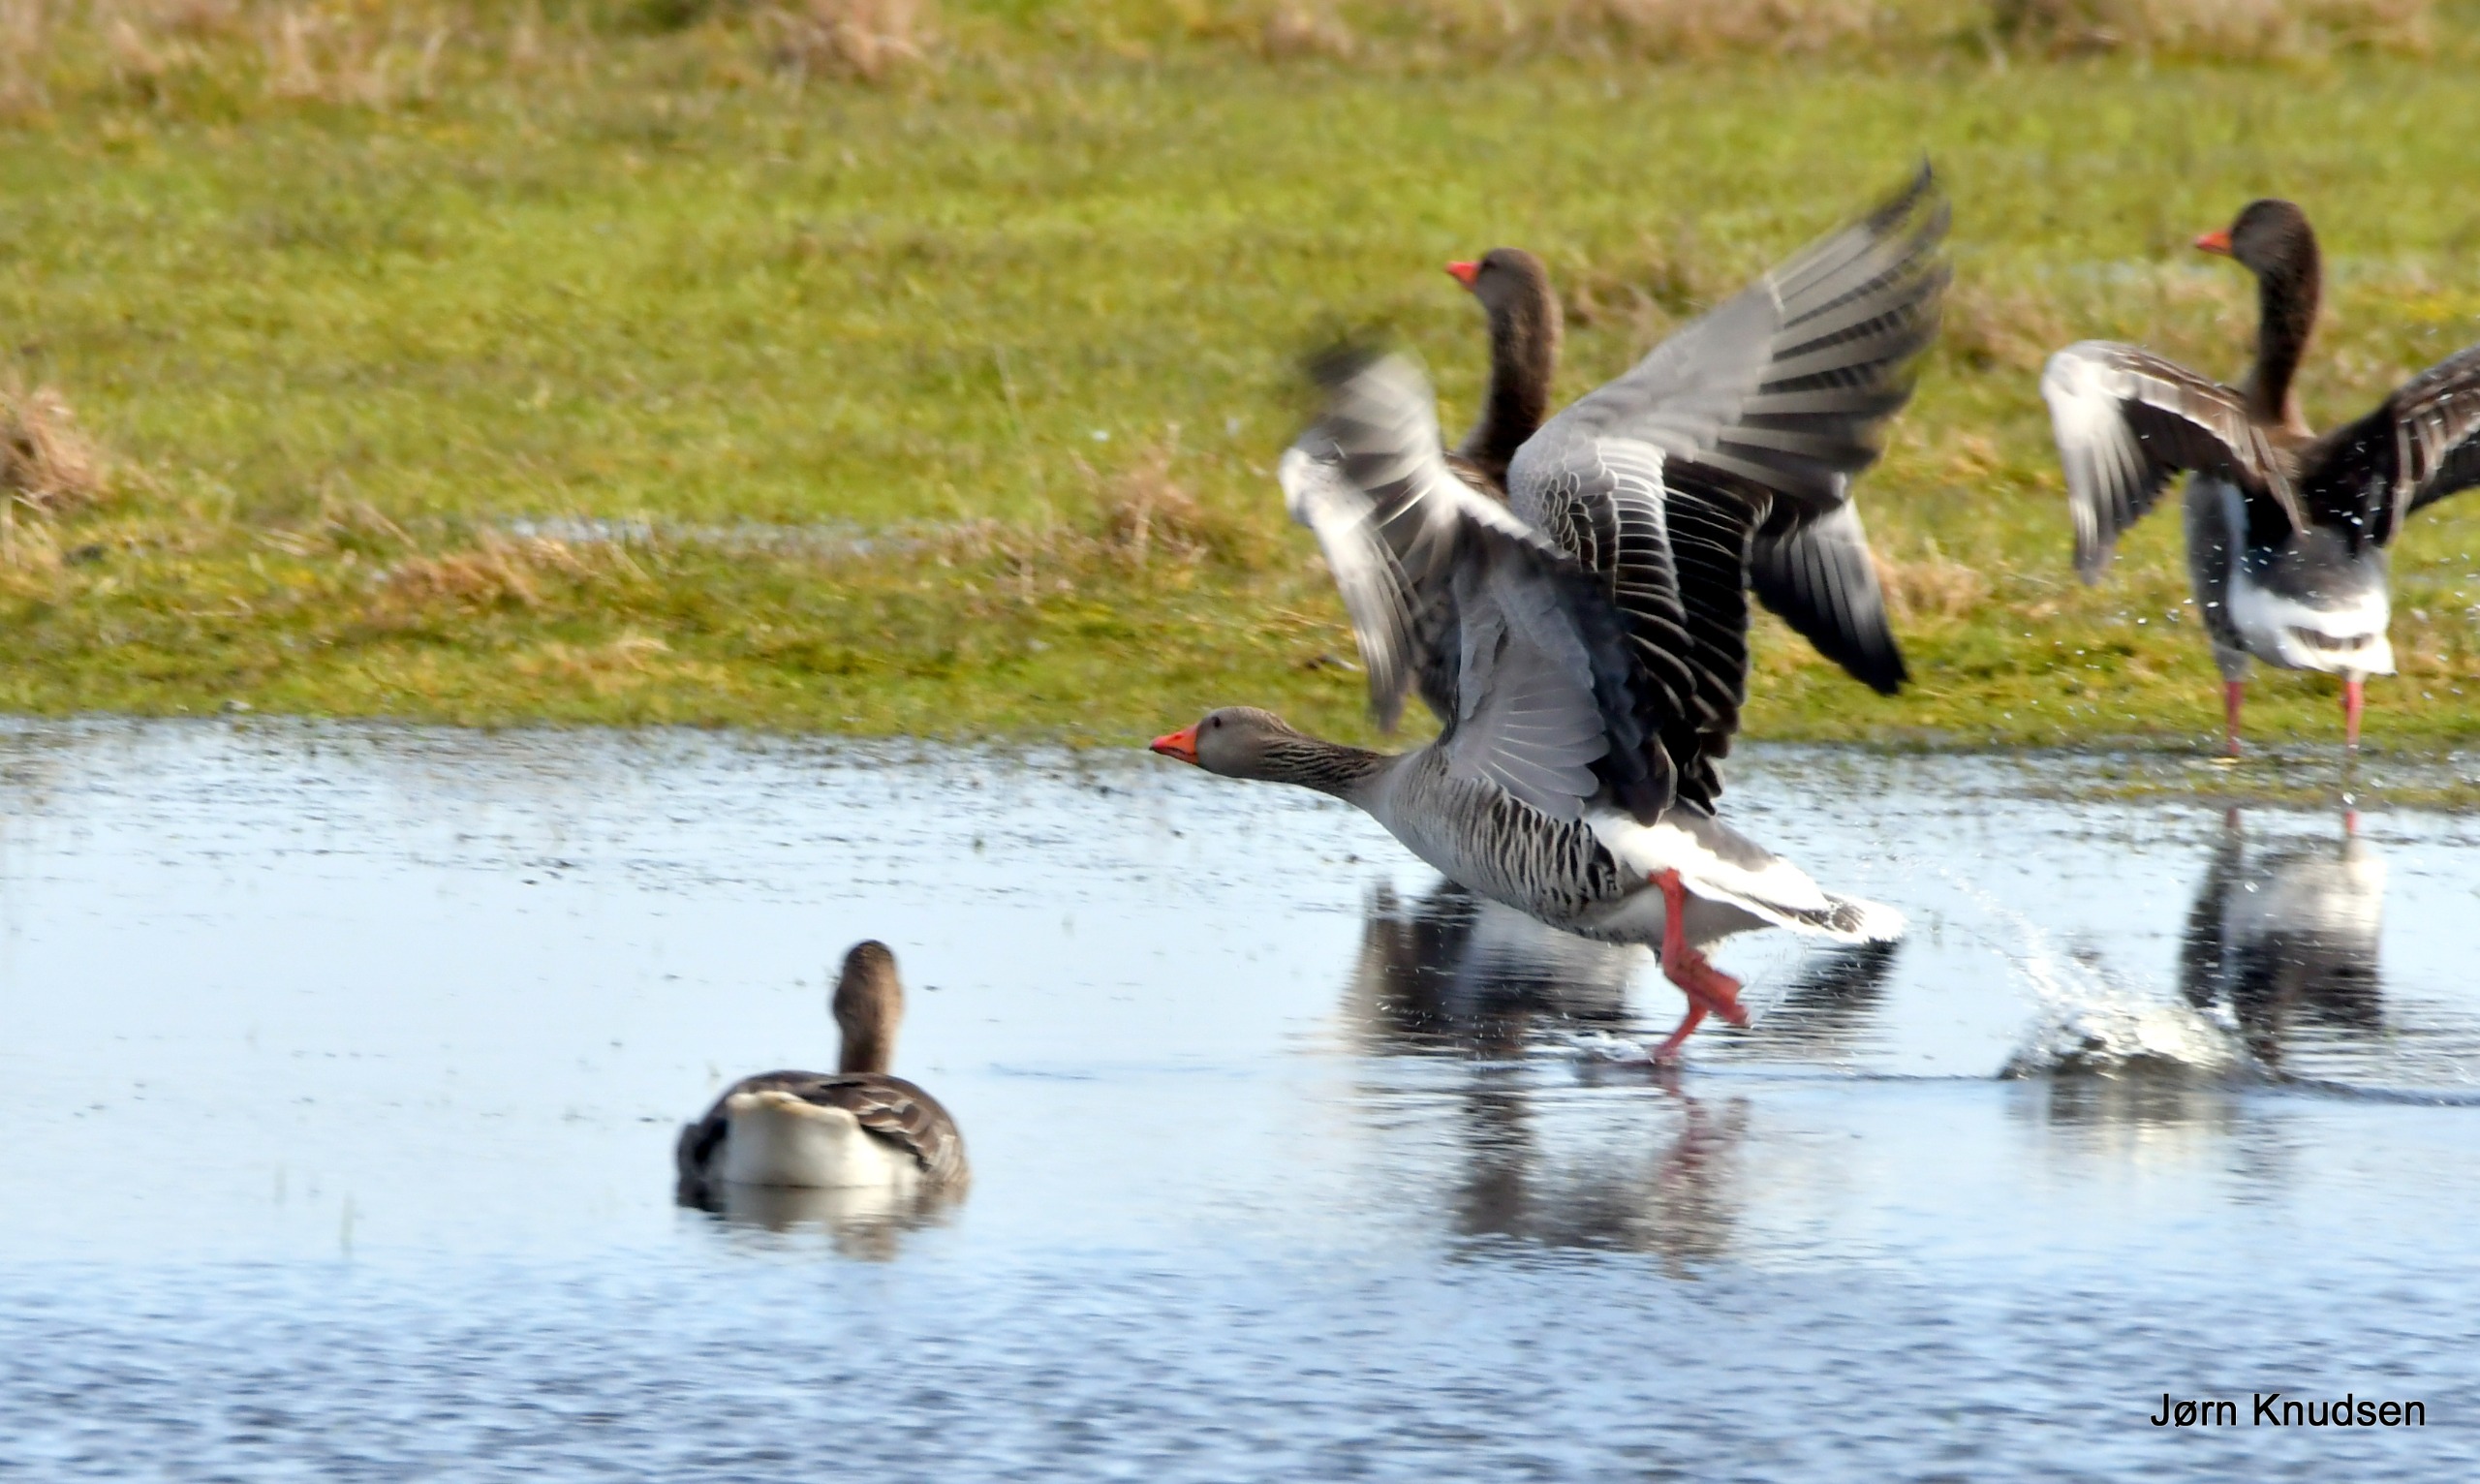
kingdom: Animalia
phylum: Chordata
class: Aves
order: Anseriformes
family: Anatidae
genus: Anser
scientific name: Anser anser
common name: Grågås
